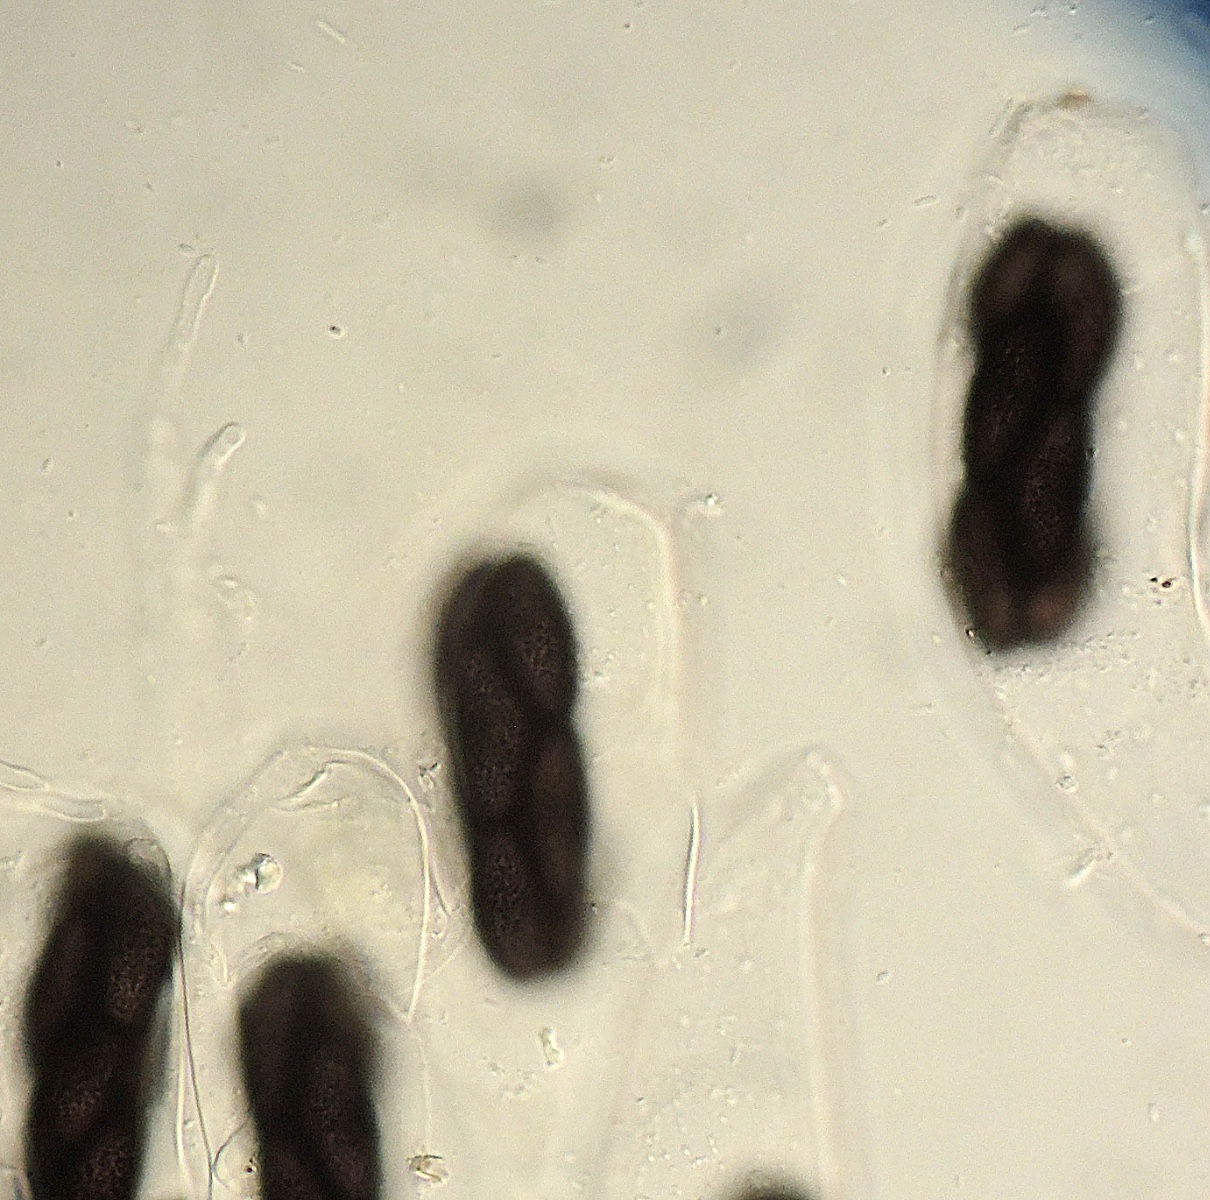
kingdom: Fungi
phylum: Ascomycota
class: Pezizomycetes
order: Pezizales
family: Ascobolaceae
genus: Saccobolus
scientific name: Saccobolus succineus
